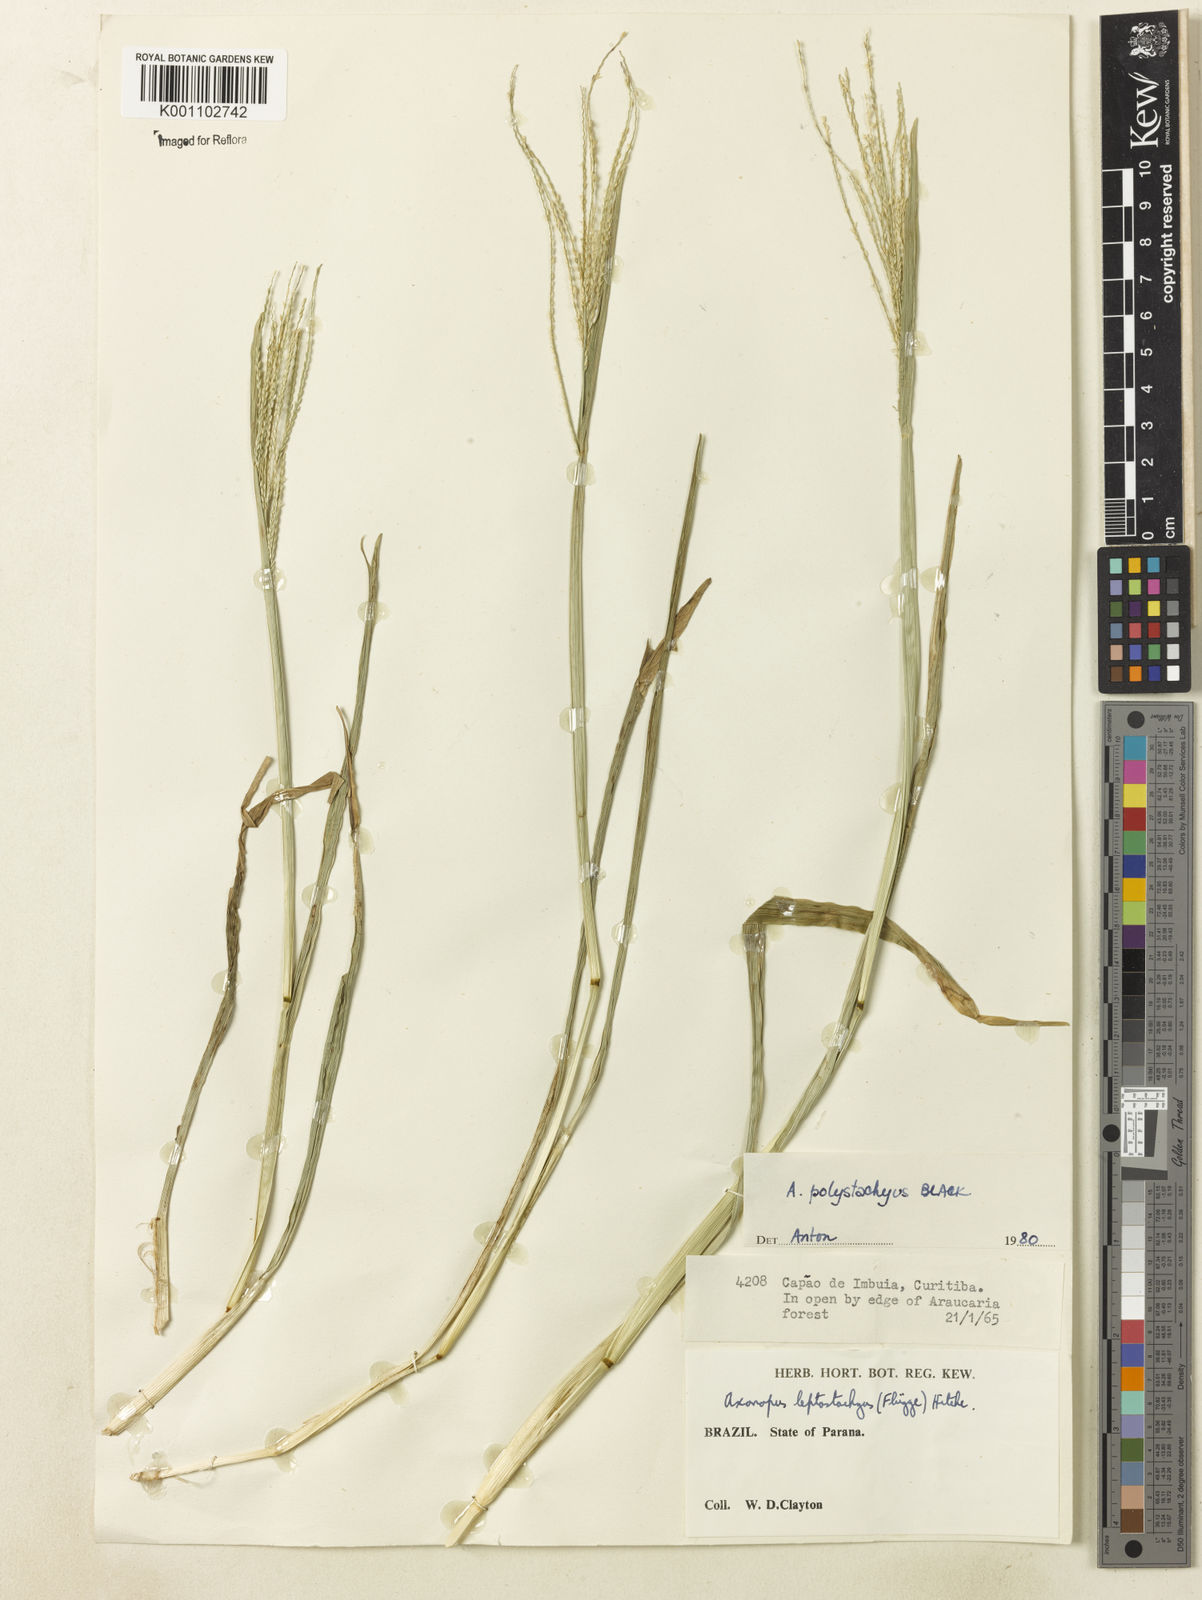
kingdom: Plantae
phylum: Tracheophyta
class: Liliopsida
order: Poales
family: Poaceae
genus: Axonopus
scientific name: Axonopus polystachyus
